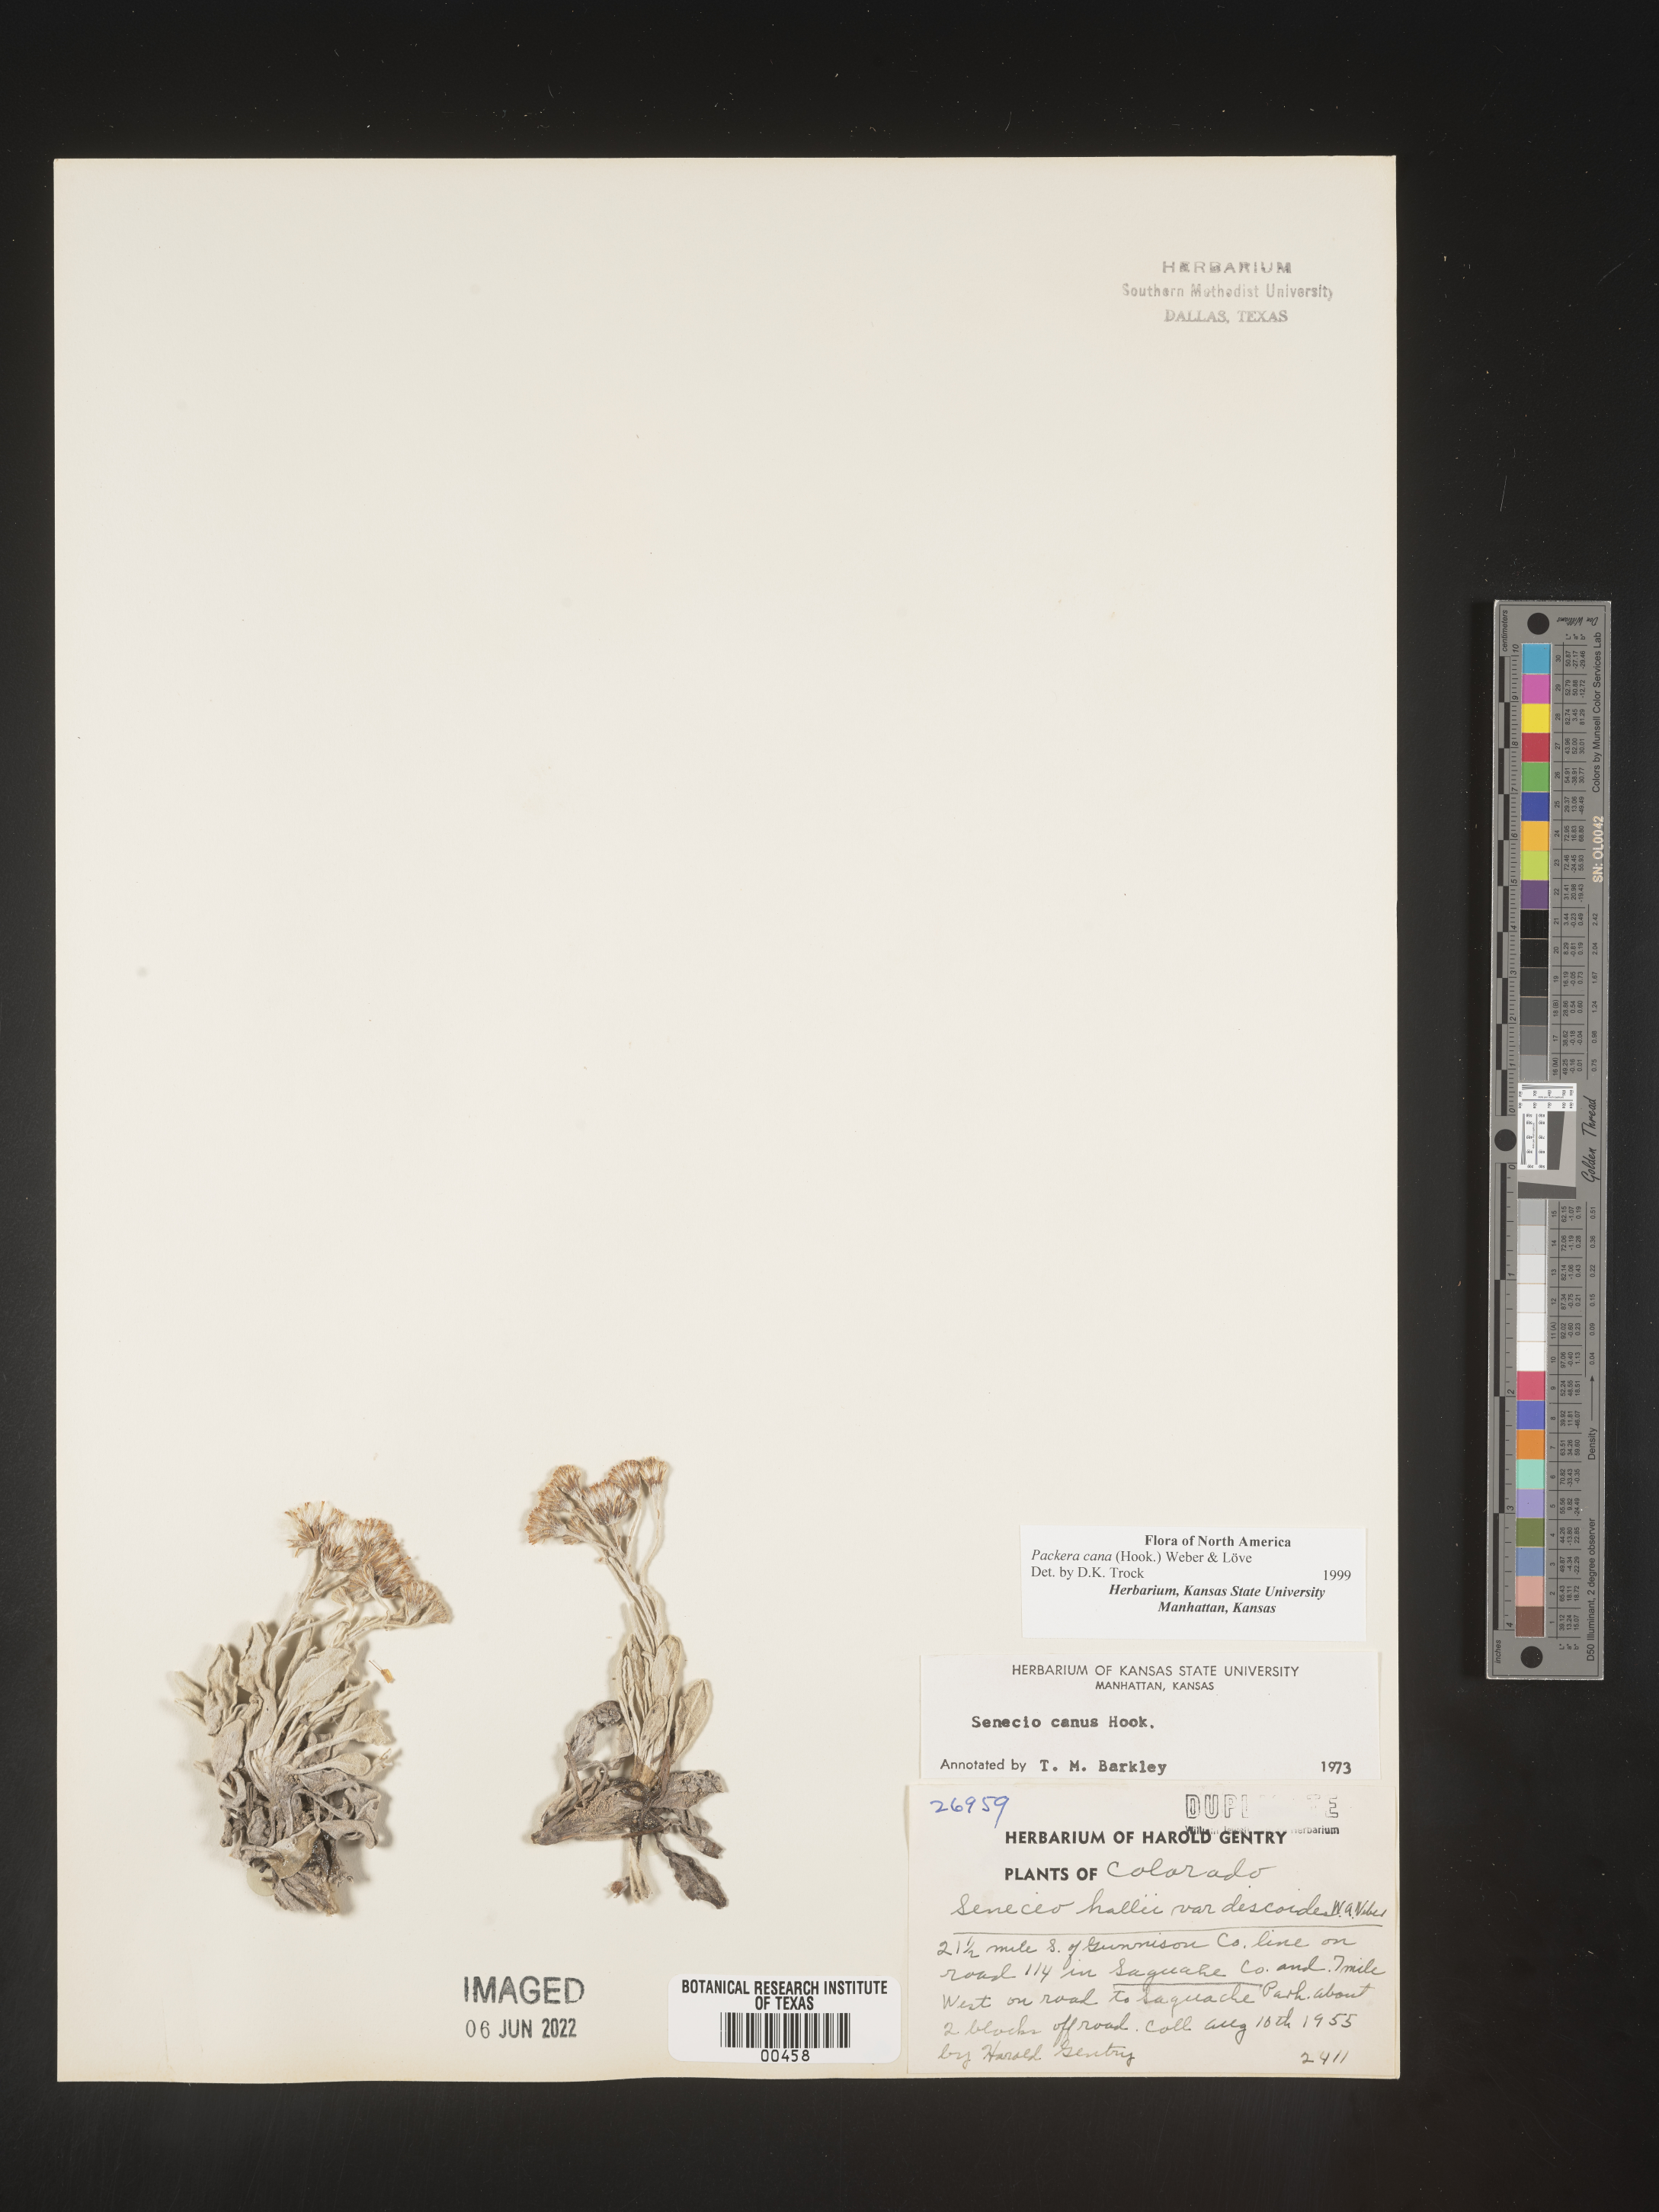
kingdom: Plantae
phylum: Tracheophyta
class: Magnoliopsida
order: Asterales
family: Asteraceae
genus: Packera
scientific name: Packera cana
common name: Woolly groundsel
